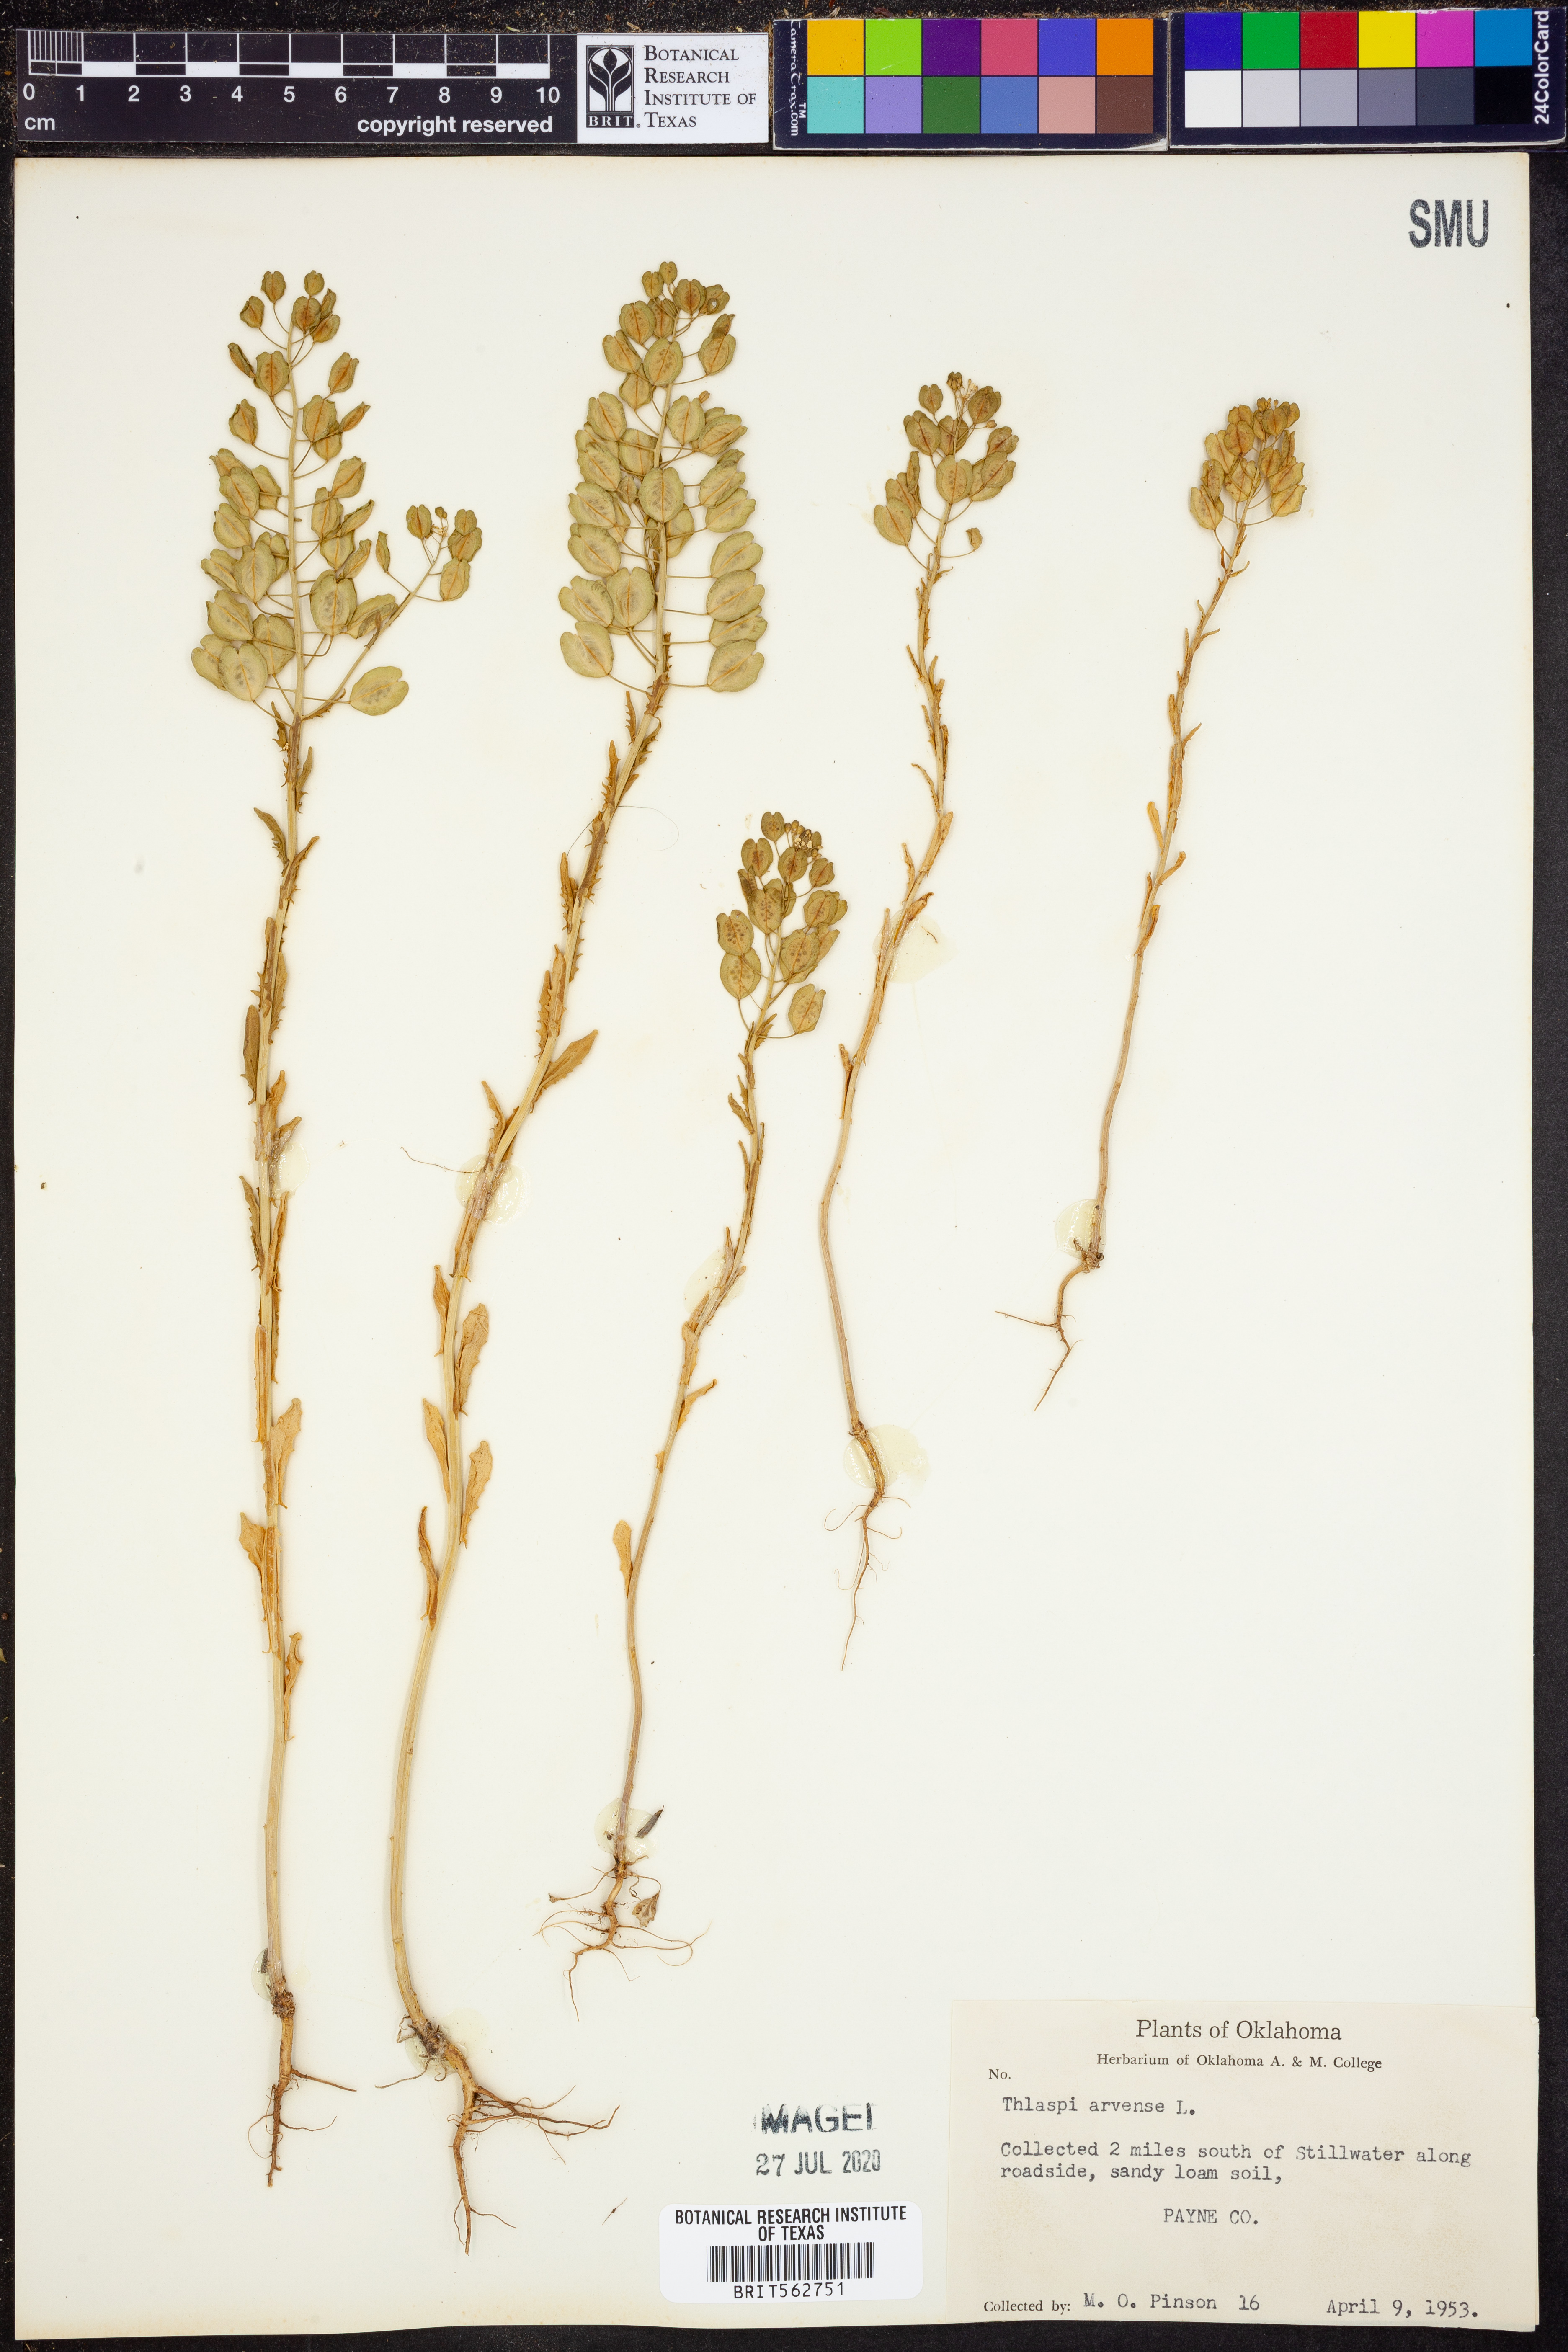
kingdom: Plantae
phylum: Tracheophyta
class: Magnoliopsida
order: Brassicales
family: Brassicaceae
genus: Thlaspi
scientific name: Thlaspi arvense
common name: Field pennycress
